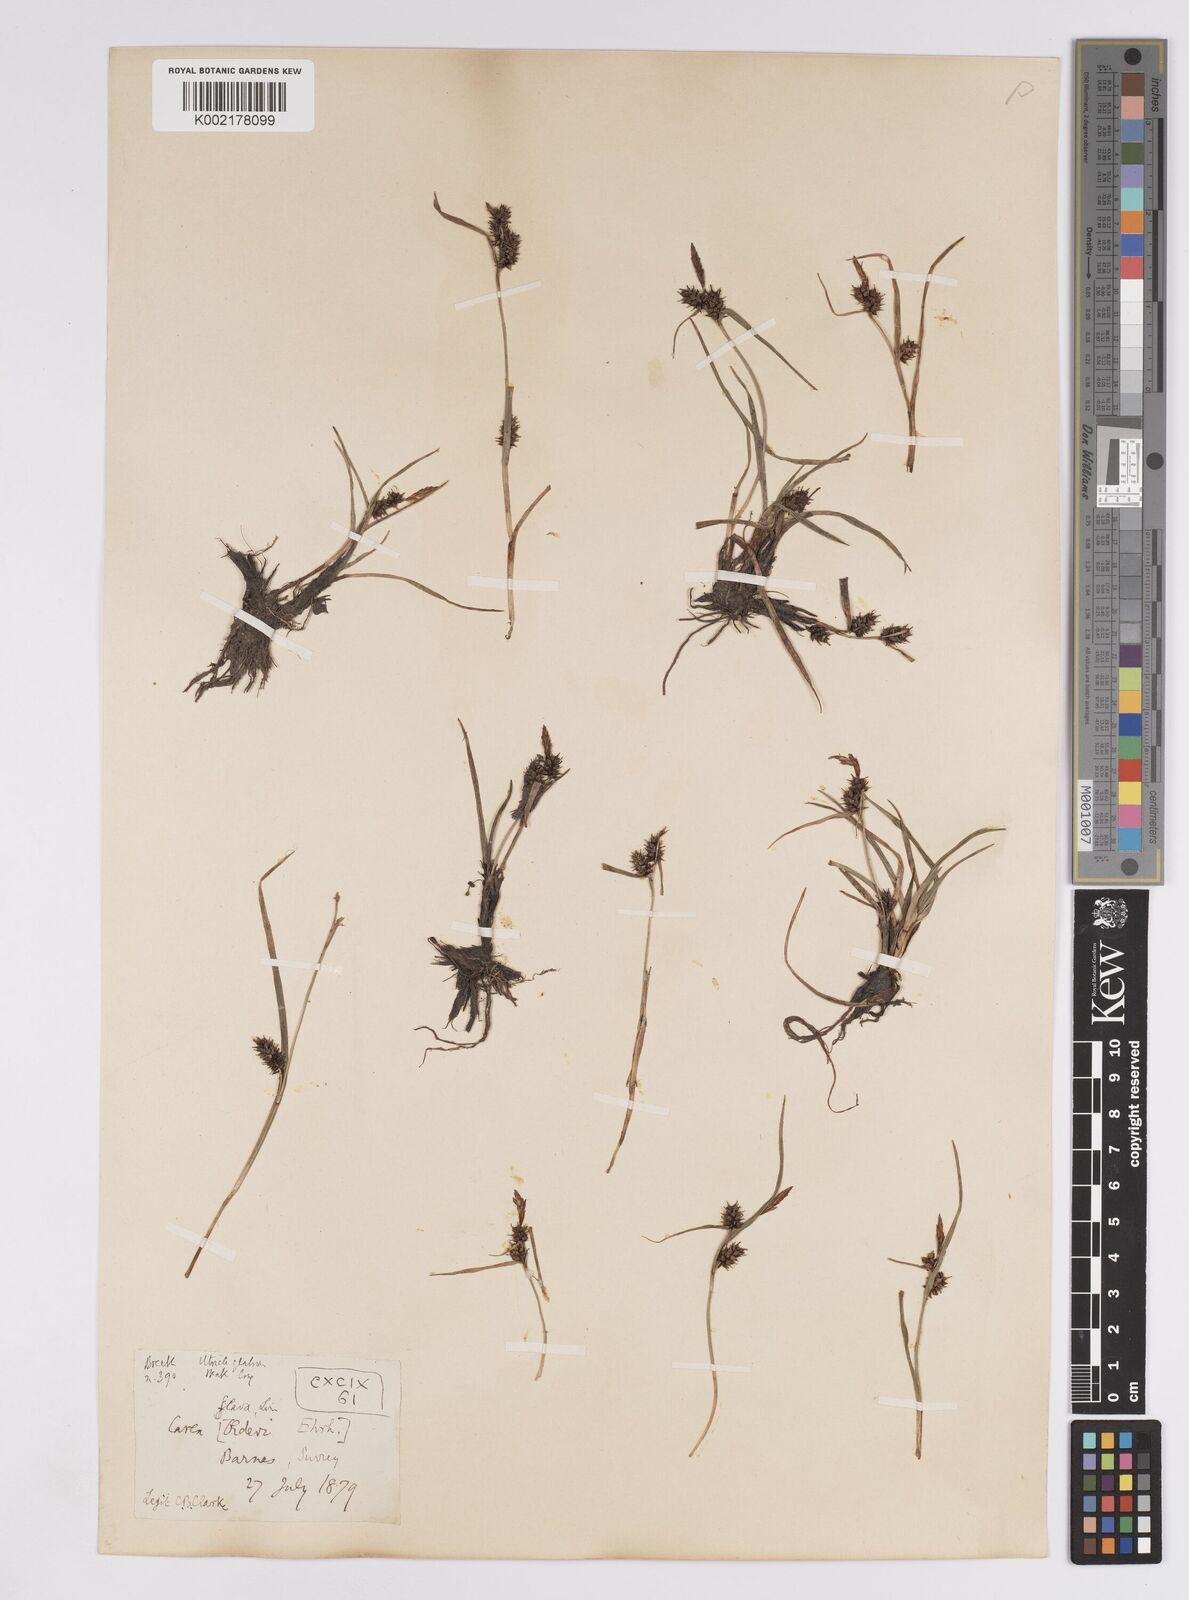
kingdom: Plantae
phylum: Tracheophyta
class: Liliopsida
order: Poales
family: Cyperaceae
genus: Carex
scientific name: Carex demissa
